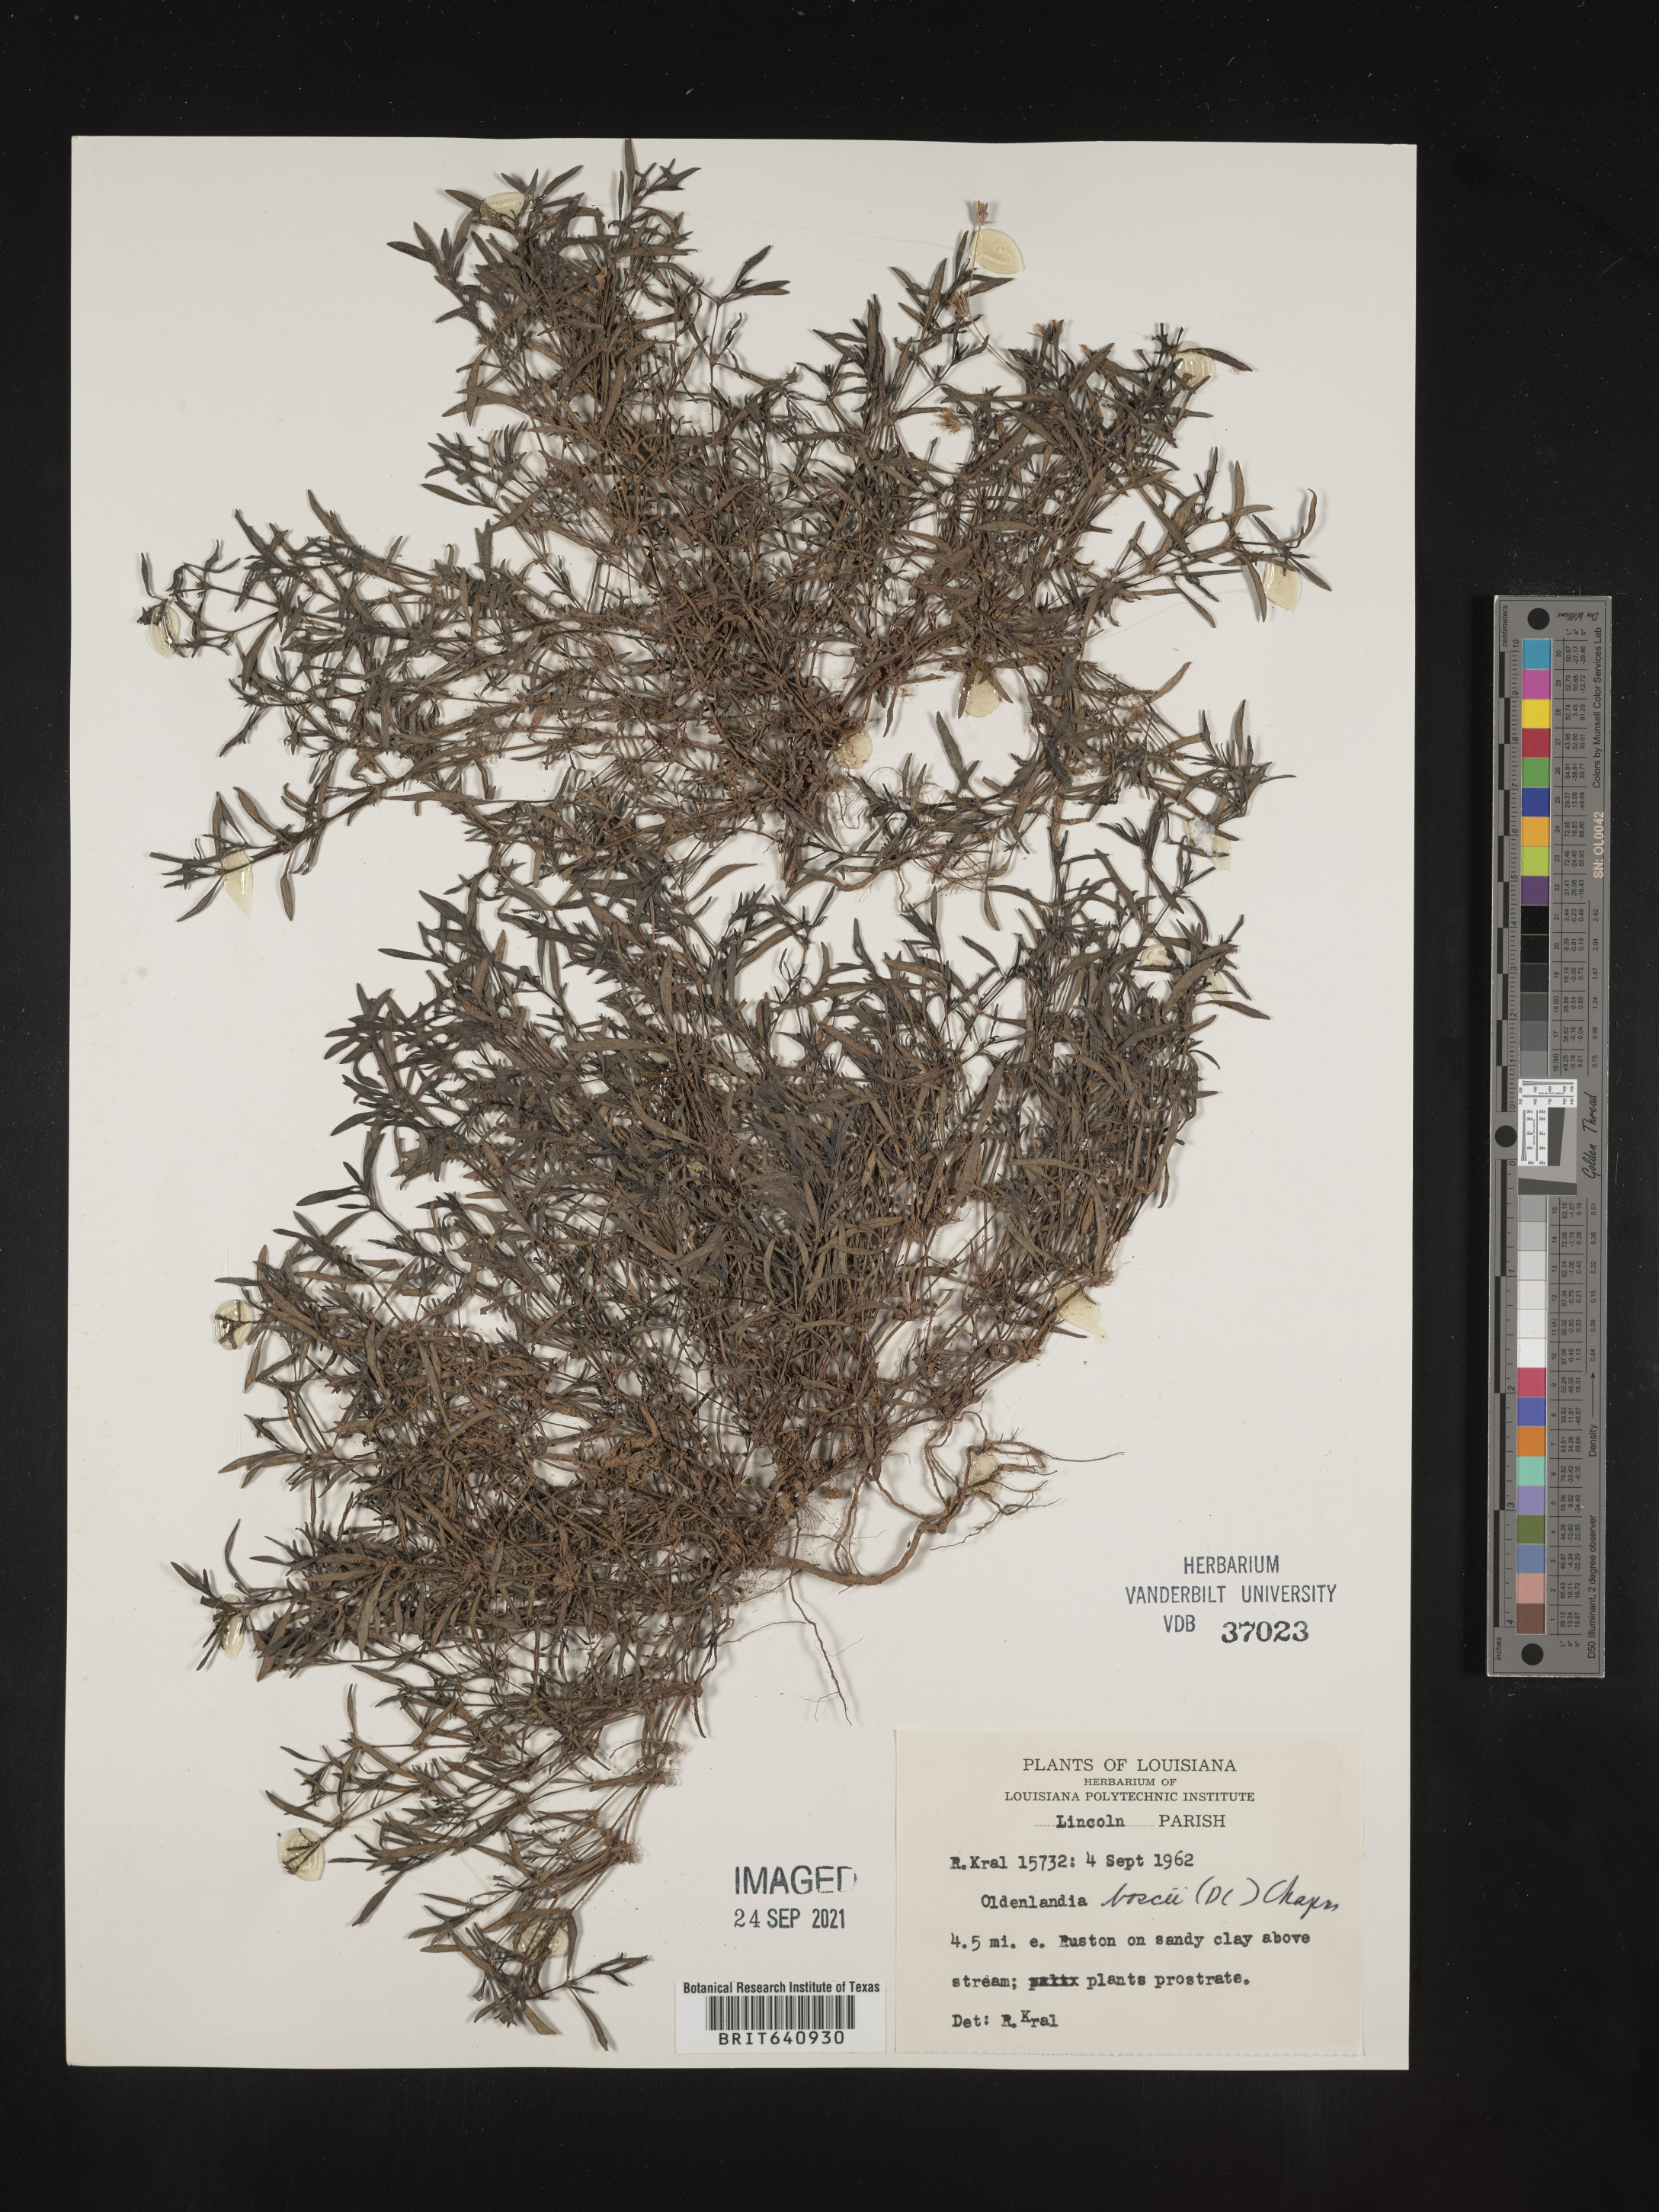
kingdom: Plantae
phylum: Tracheophyta
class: Magnoliopsida
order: Gentianales
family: Rubiaceae
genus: Oldenlandia
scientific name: Oldenlandia boscii
